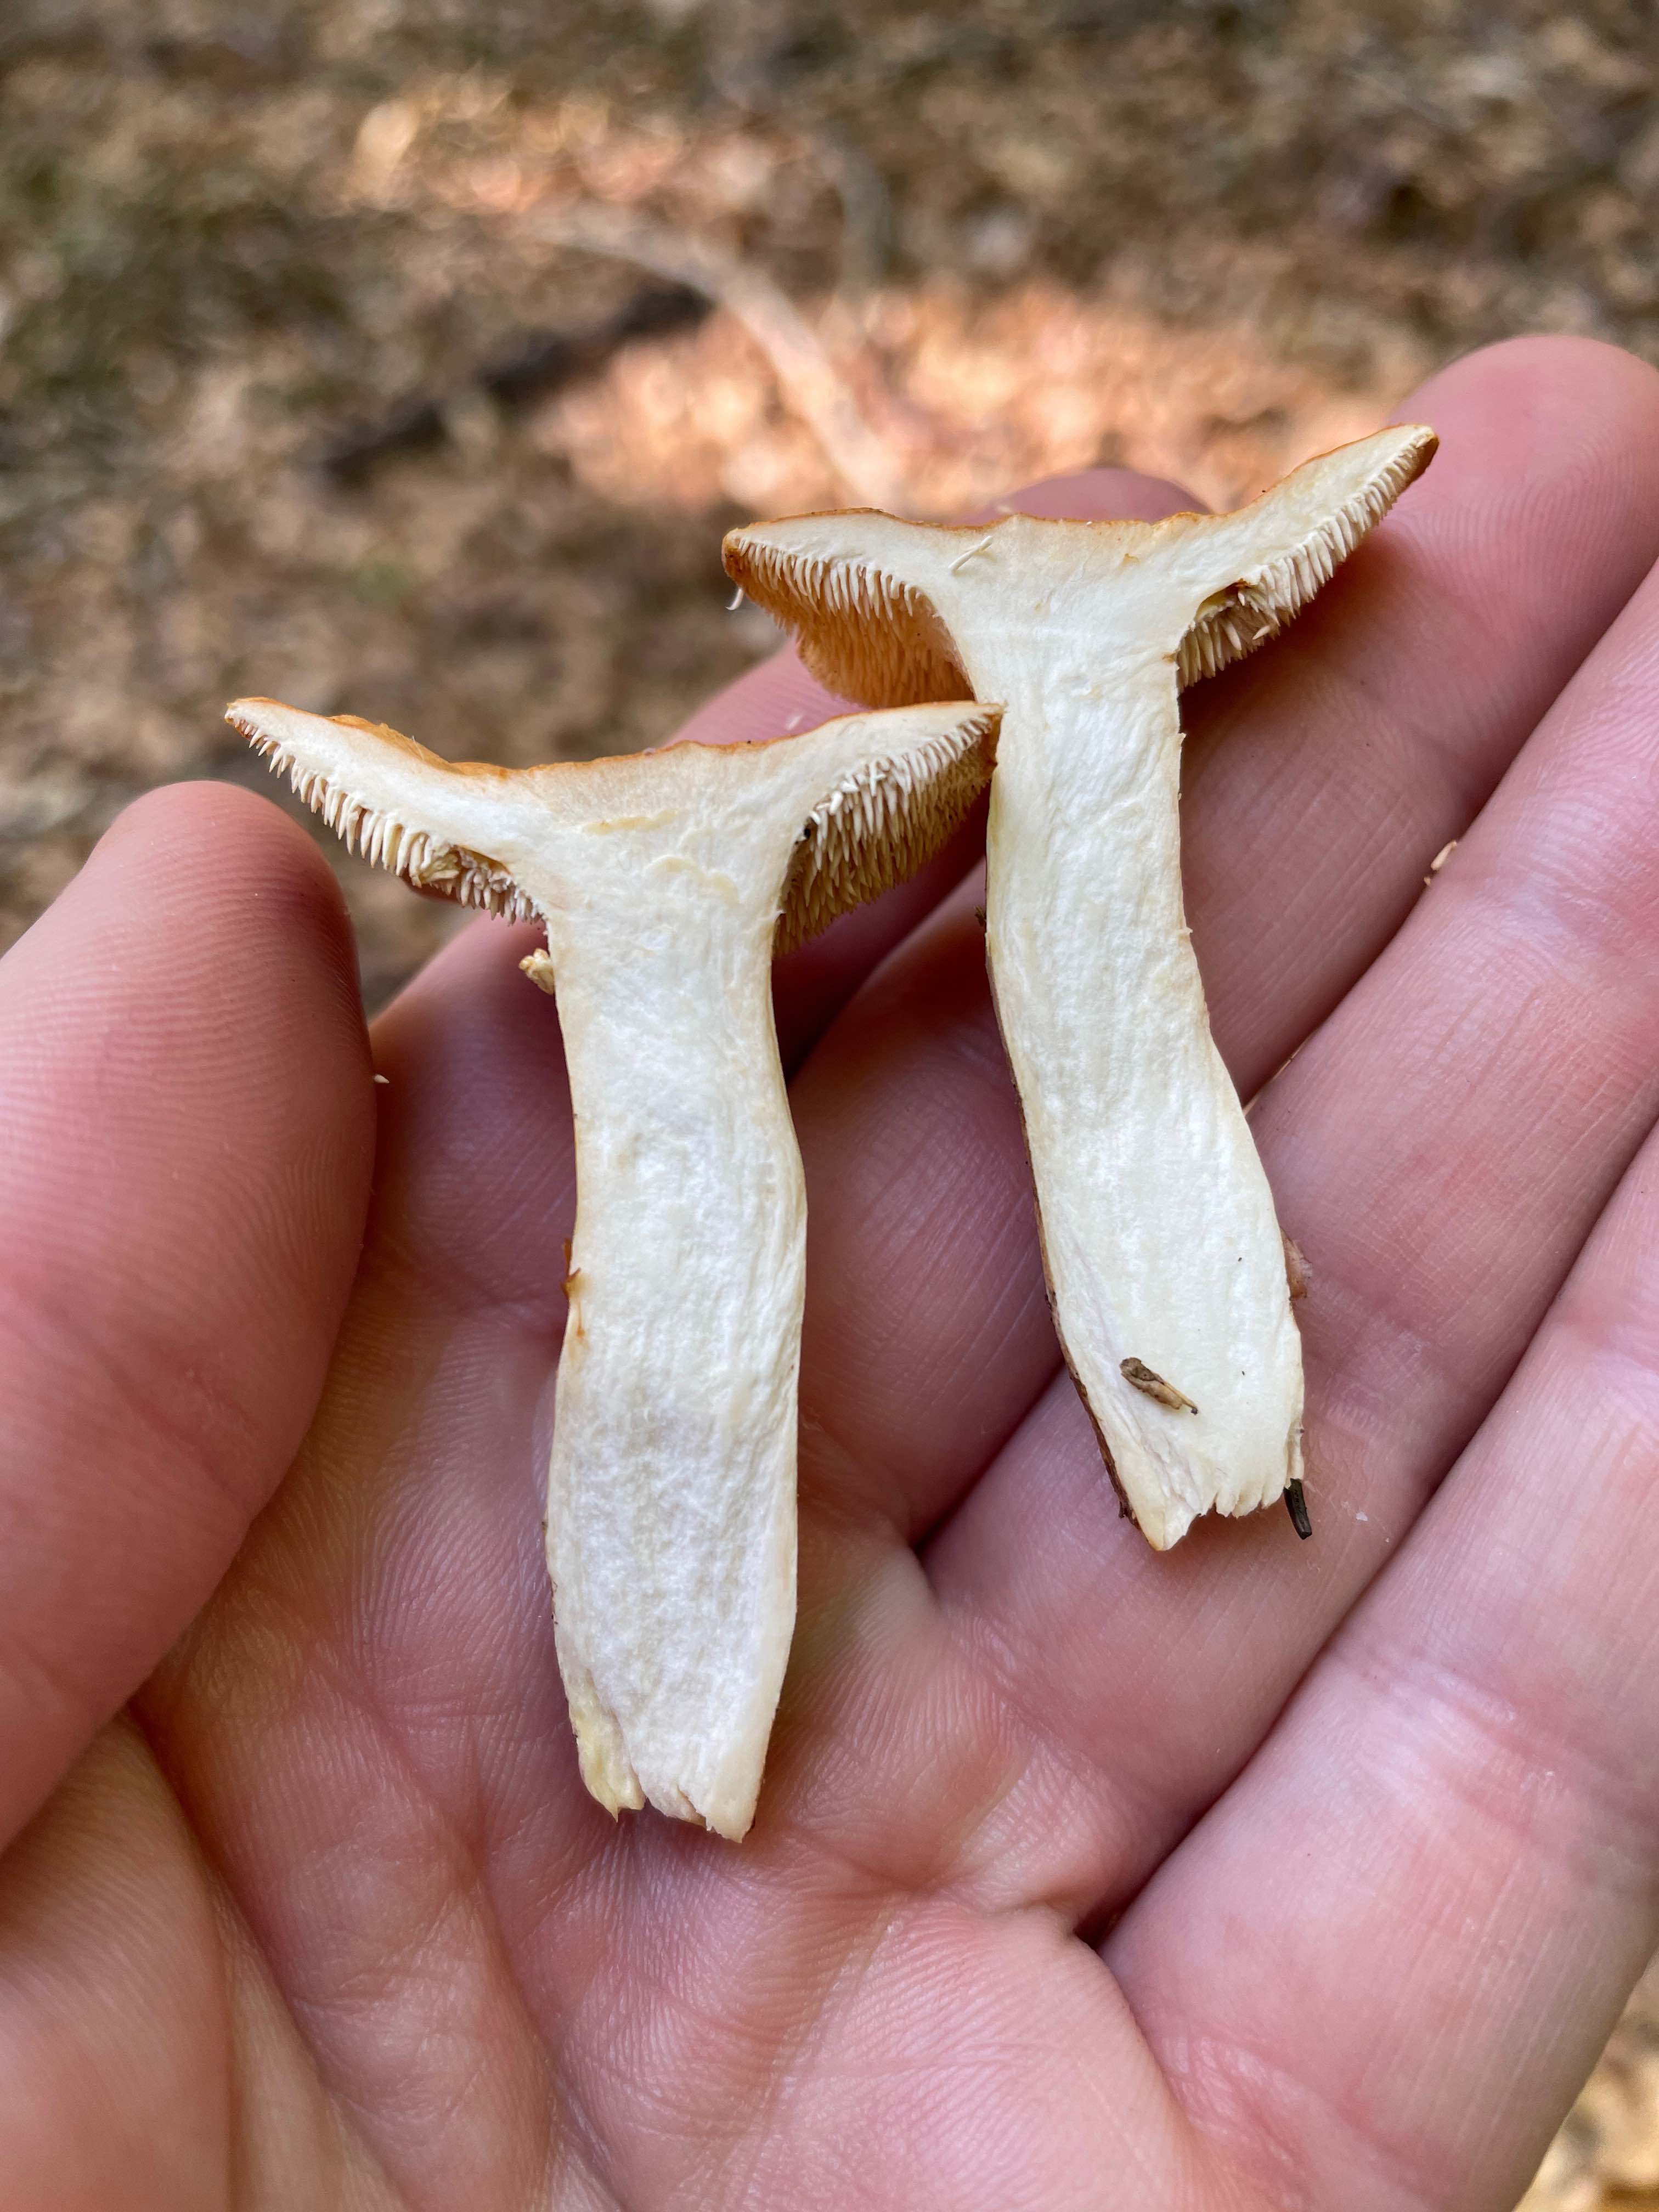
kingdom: Fungi
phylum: Basidiomycota
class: Agaricomycetes
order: Cantharellales
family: Hydnaceae
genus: Hydnum
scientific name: Hydnum
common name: pigsvamp
